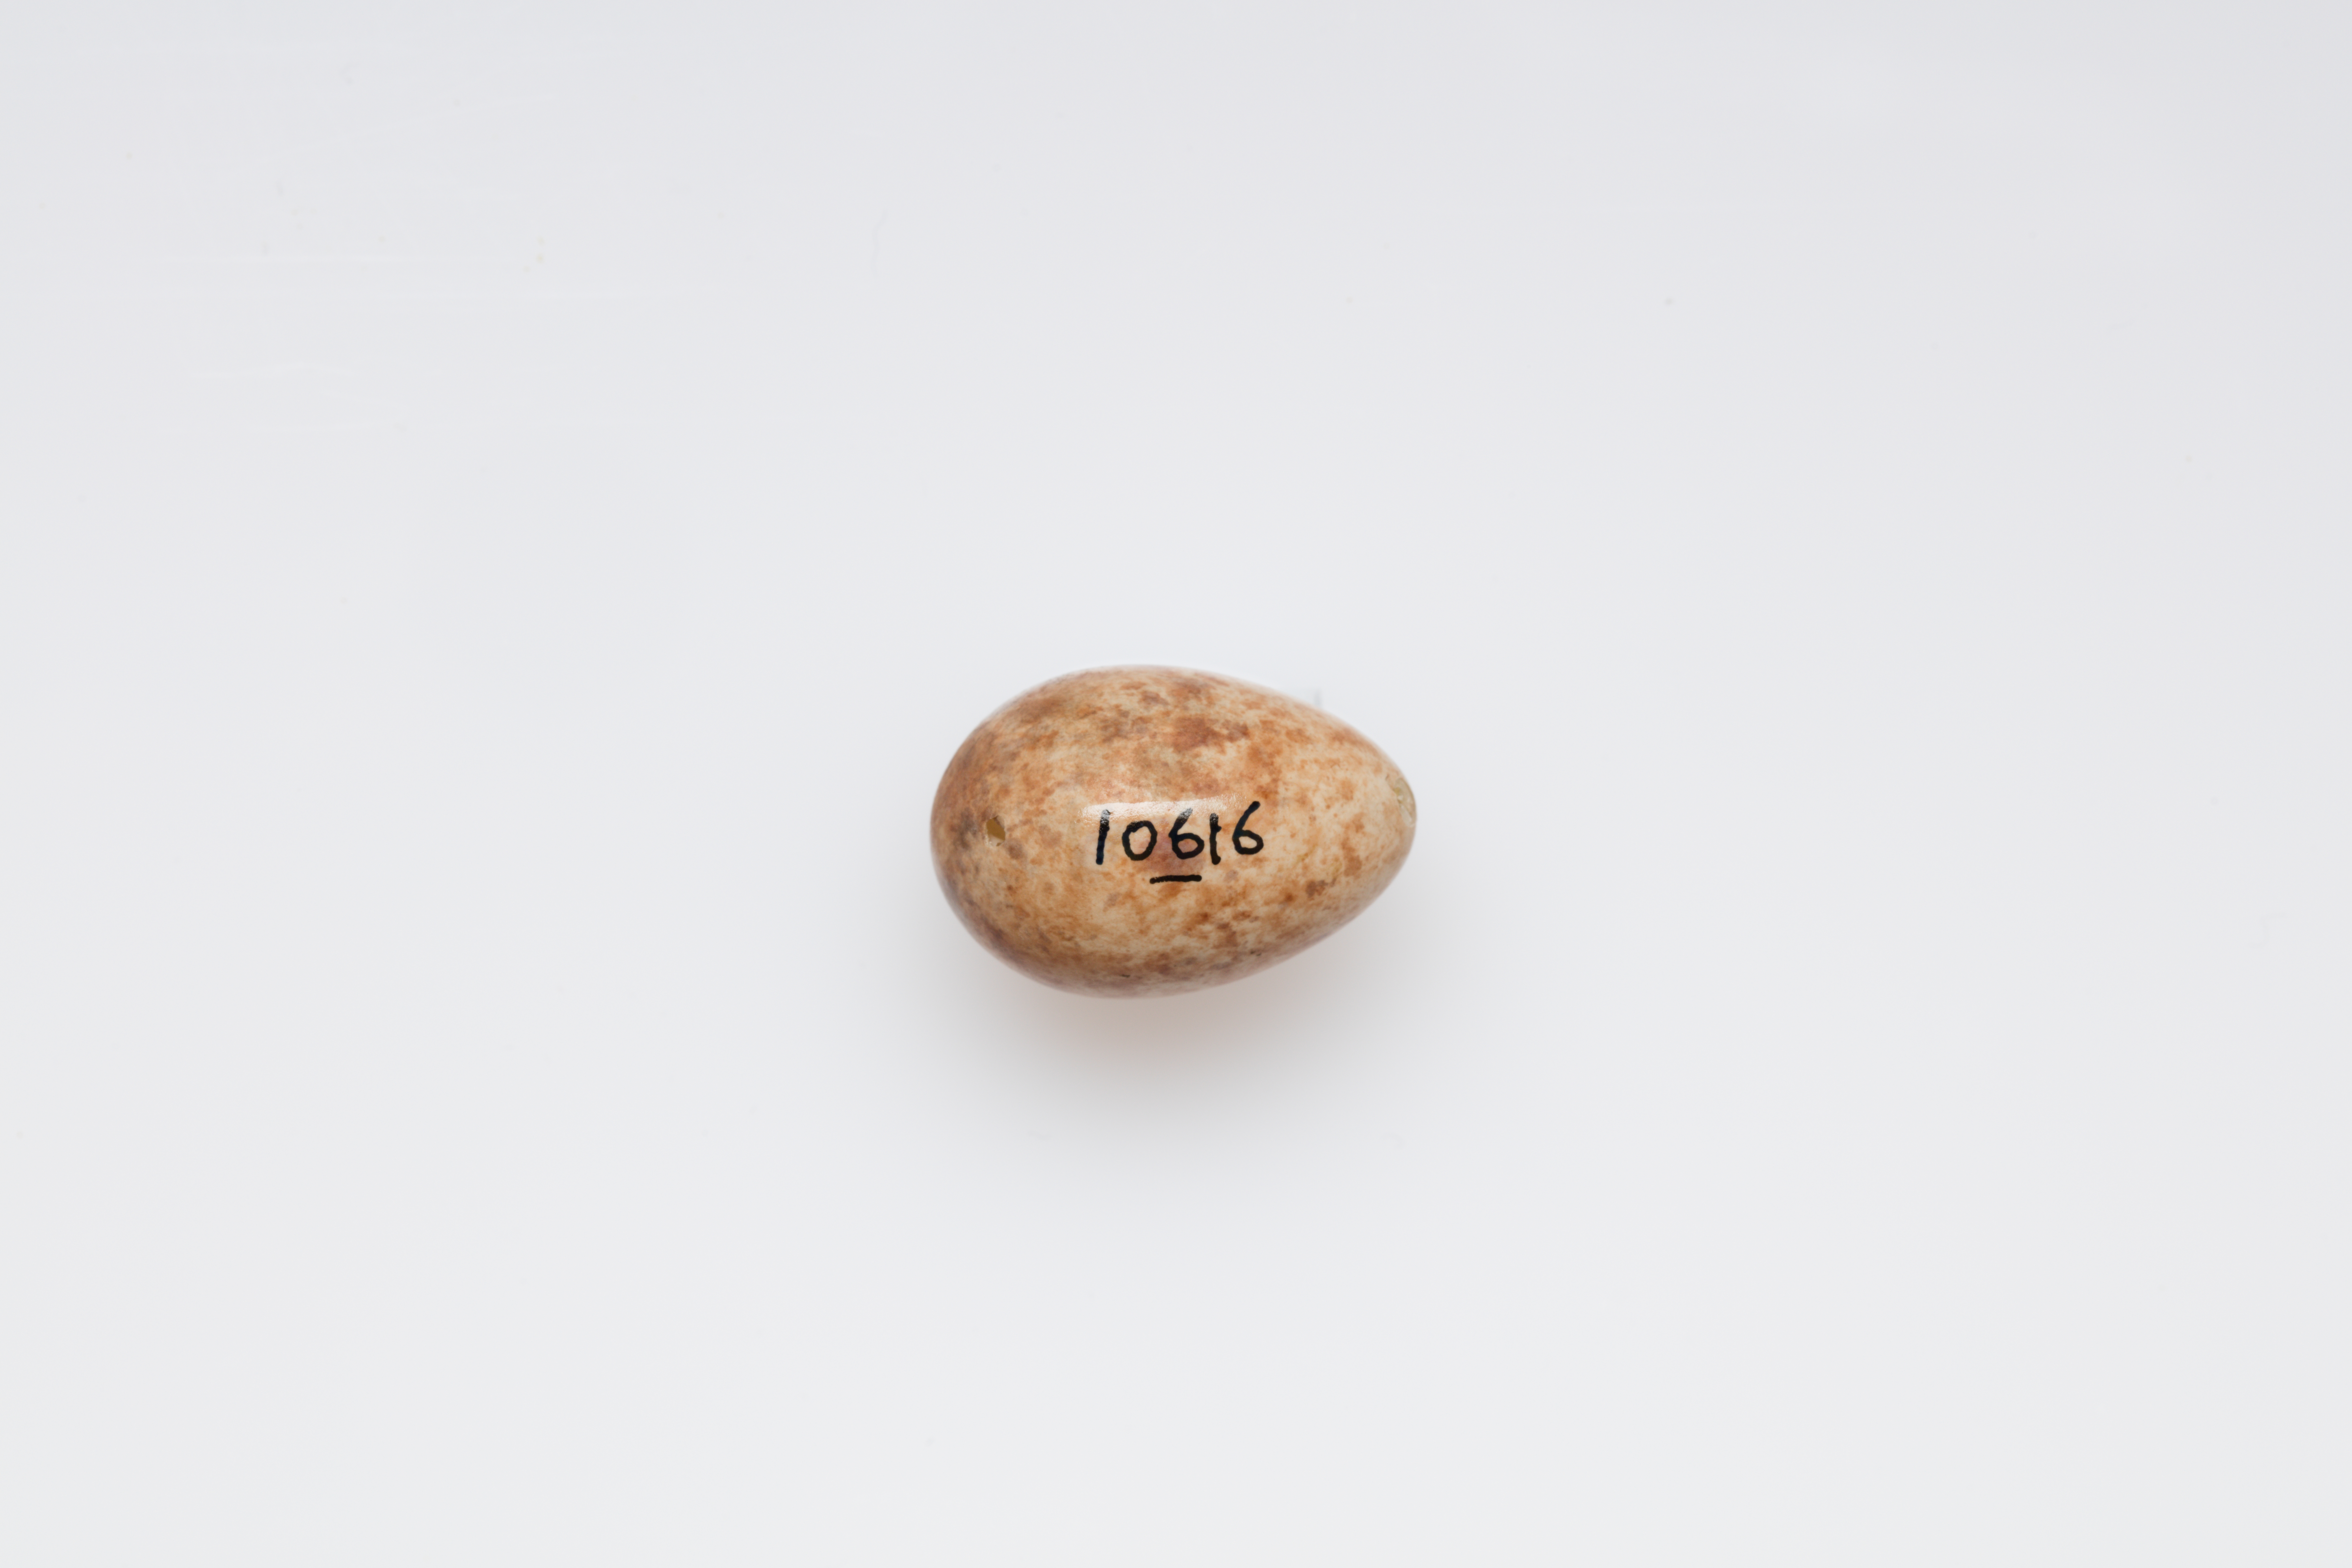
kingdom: Animalia
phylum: Chordata
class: Aves
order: Passeriformes
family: Muscicapidae
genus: Muscicapa
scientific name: Muscicapa striata
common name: Spotted flycatcher
